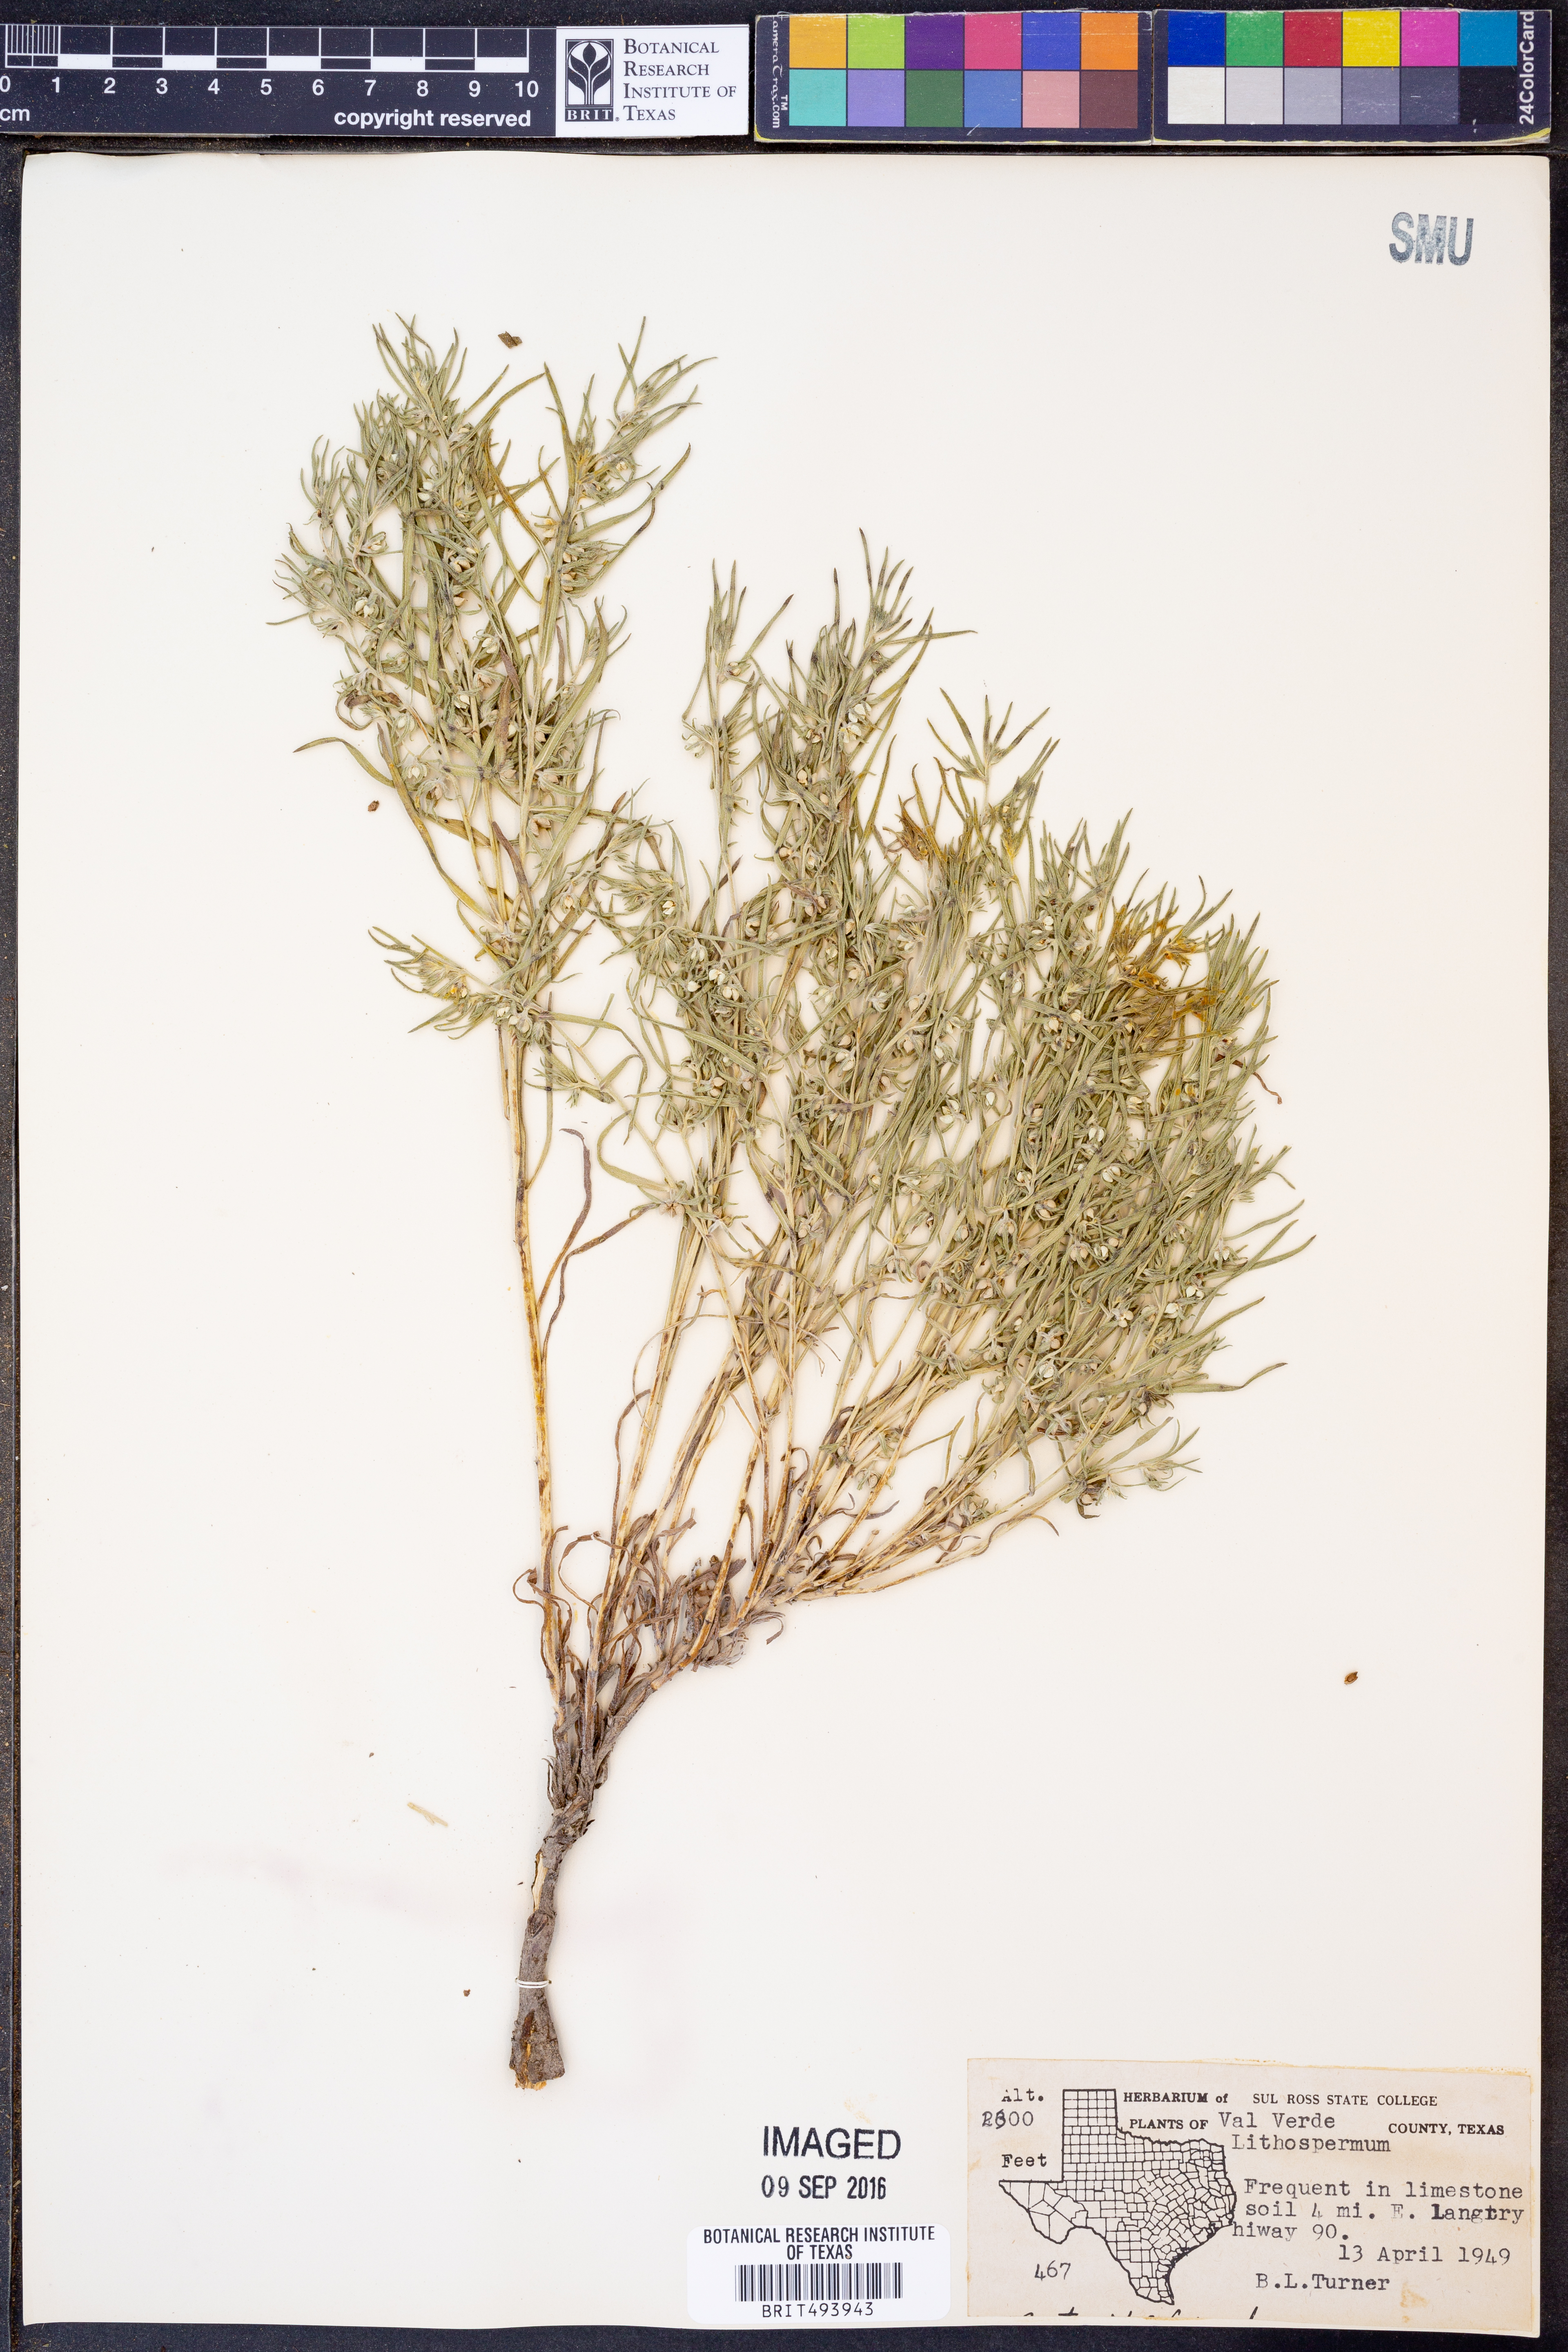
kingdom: Plantae
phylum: Tracheophyta
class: Magnoliopsida
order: Boraginales
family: Boraginaceae
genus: Lithospermum
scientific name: Lithospermum
